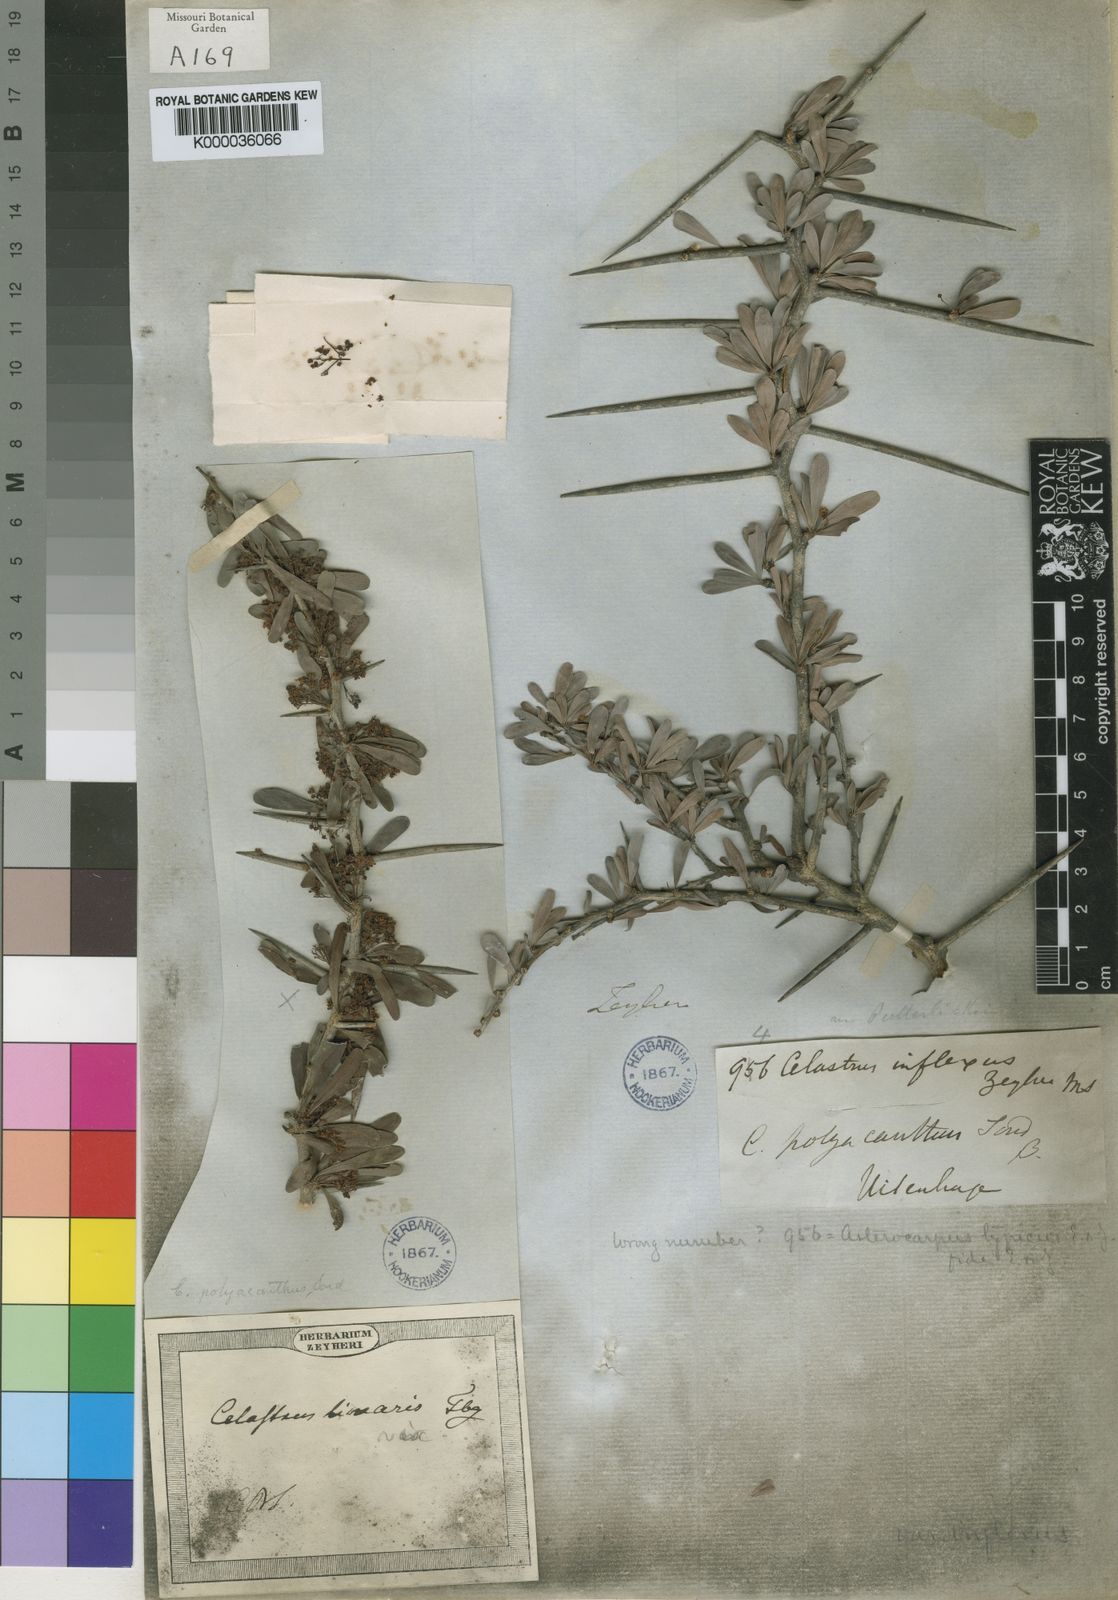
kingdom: Plantae
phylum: Tracheophyta
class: Magnoliopsida
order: Celastrales
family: Celastraceae
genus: Gymnosporia
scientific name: Gymnosporia polyacantha
